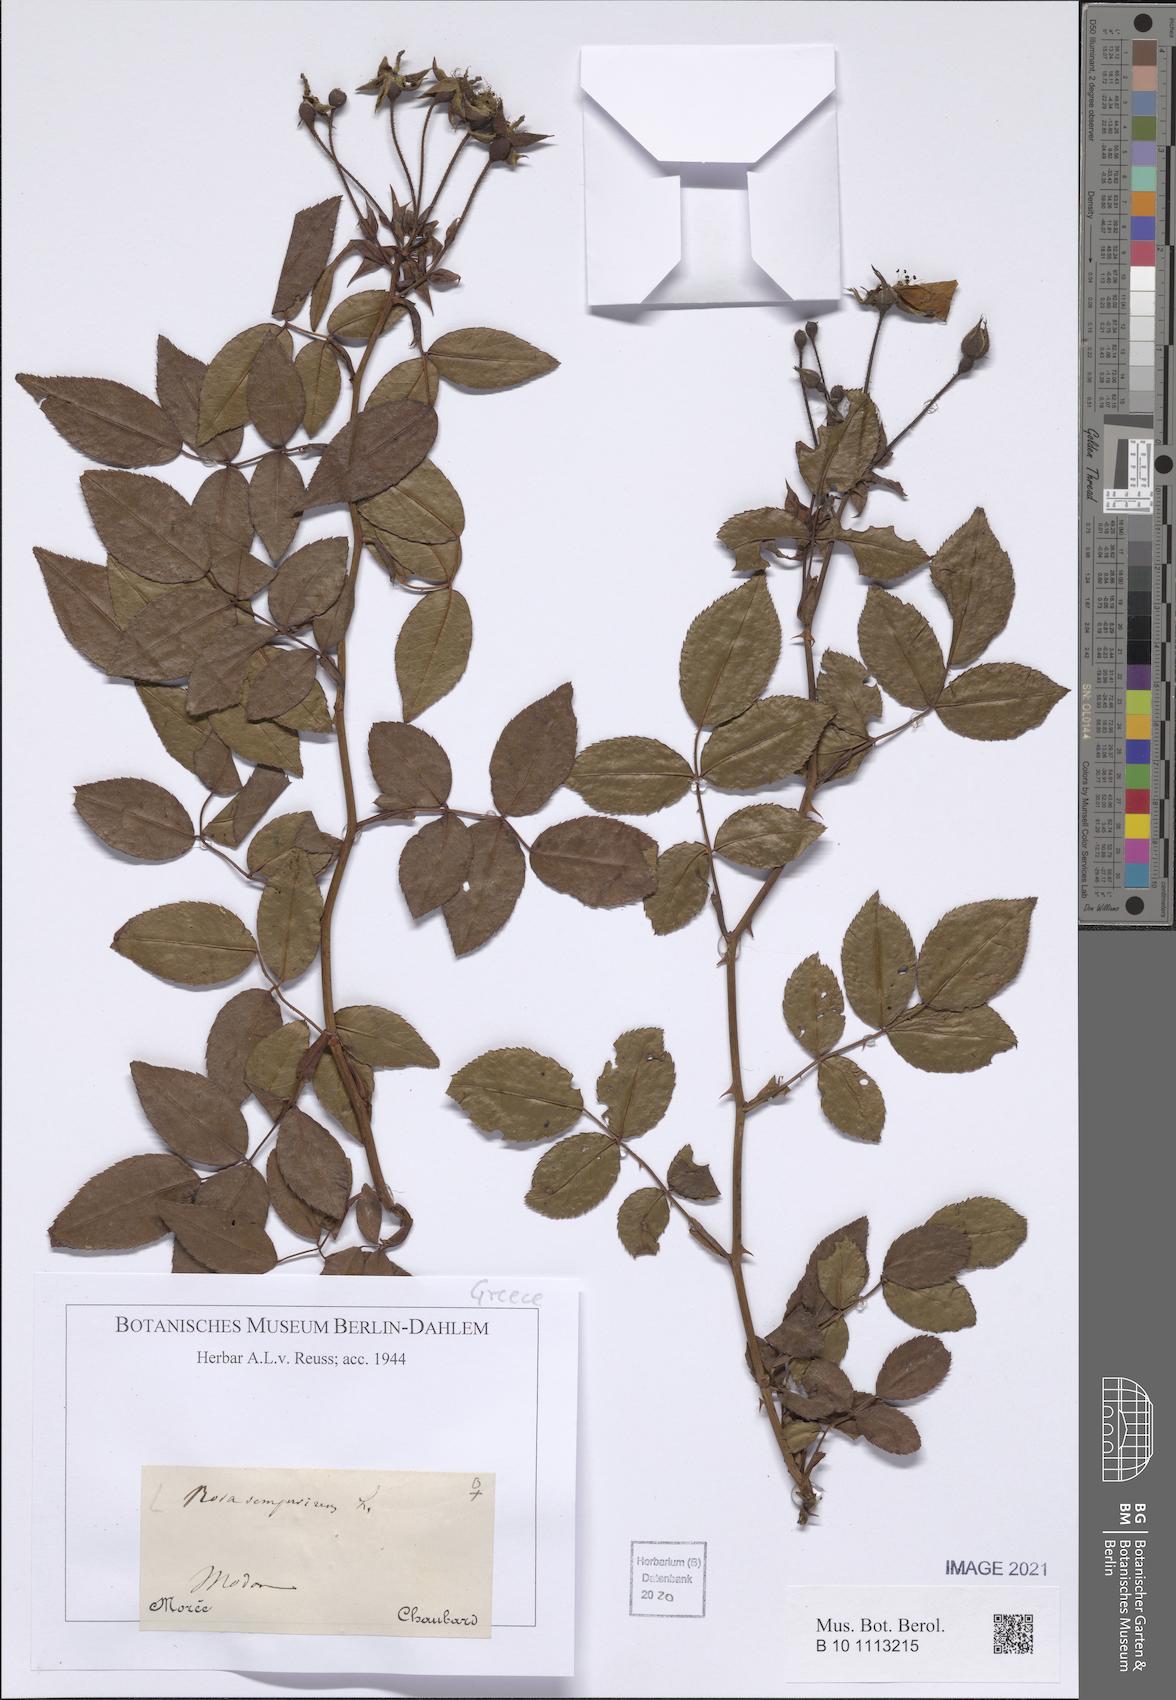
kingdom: Plantae
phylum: Tracheophyta
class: Magnoliopsida
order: Rosales
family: Rosaceae
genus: Rosa
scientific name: Rosa sempervirens
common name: Evergreen rose
